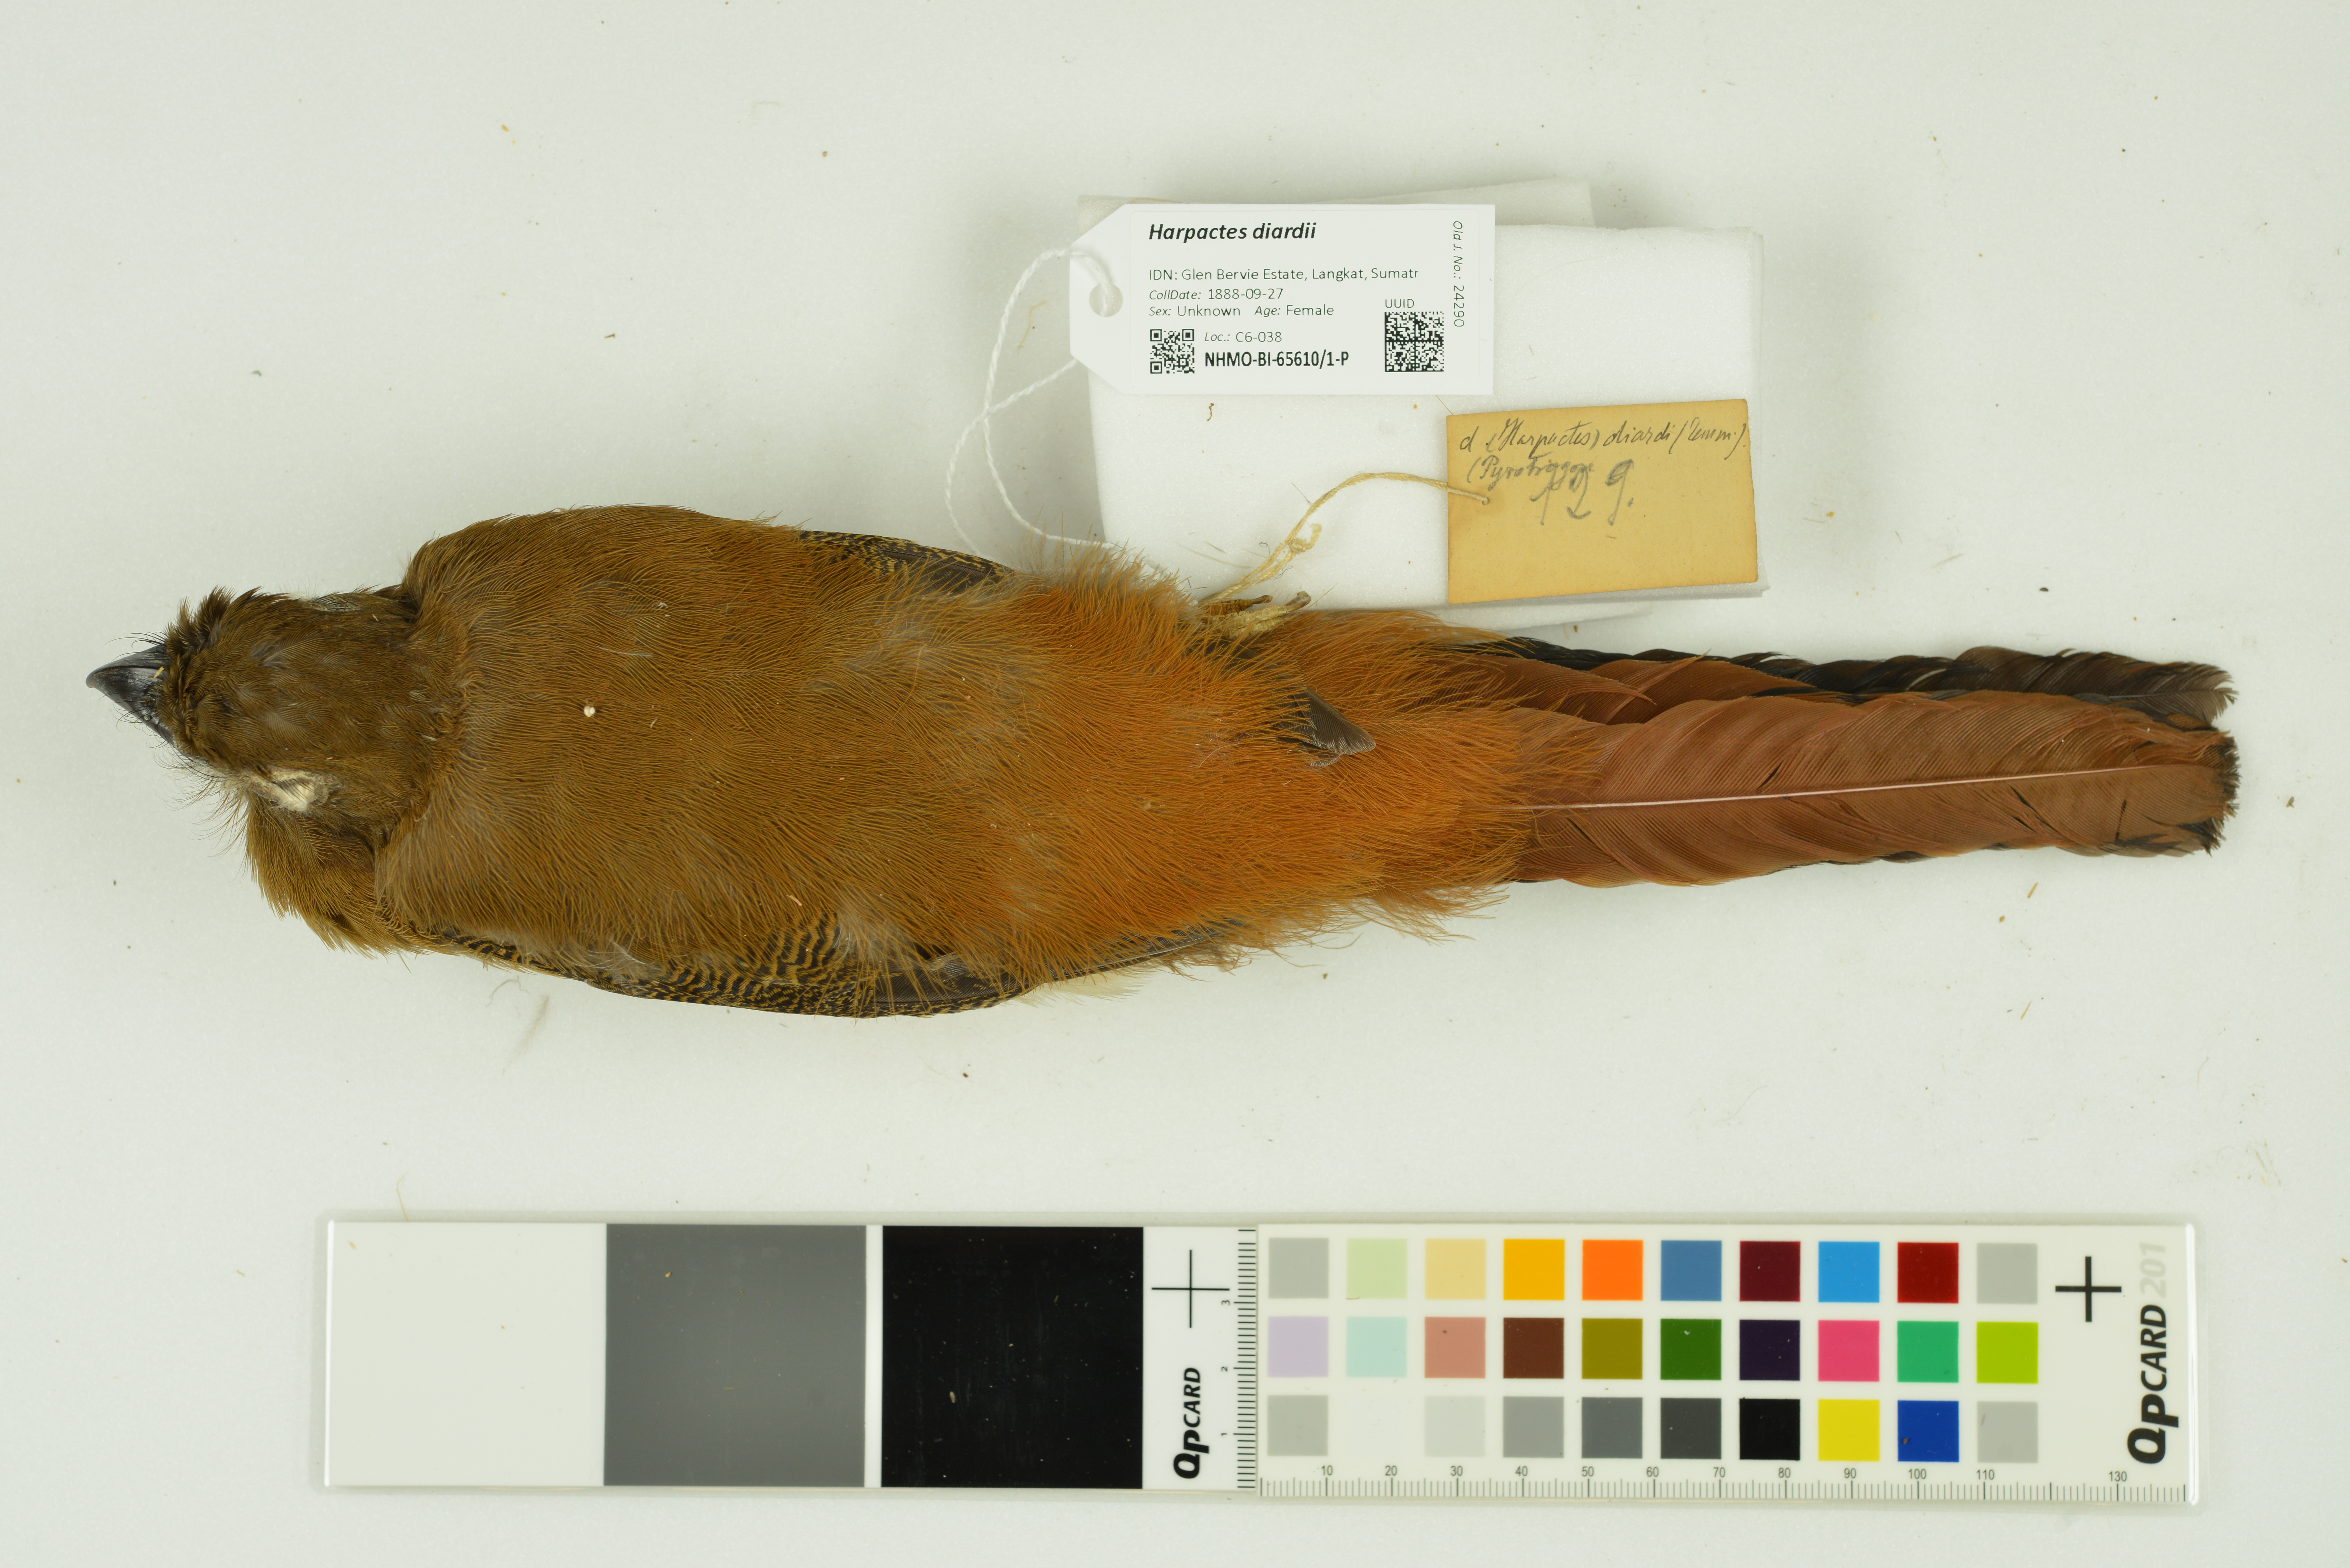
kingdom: Animalia
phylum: Chordata
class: Aves
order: Trogoniformes
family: Trogonidae
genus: Harpactes
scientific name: Harpactes diardii
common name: Diard's trogon
